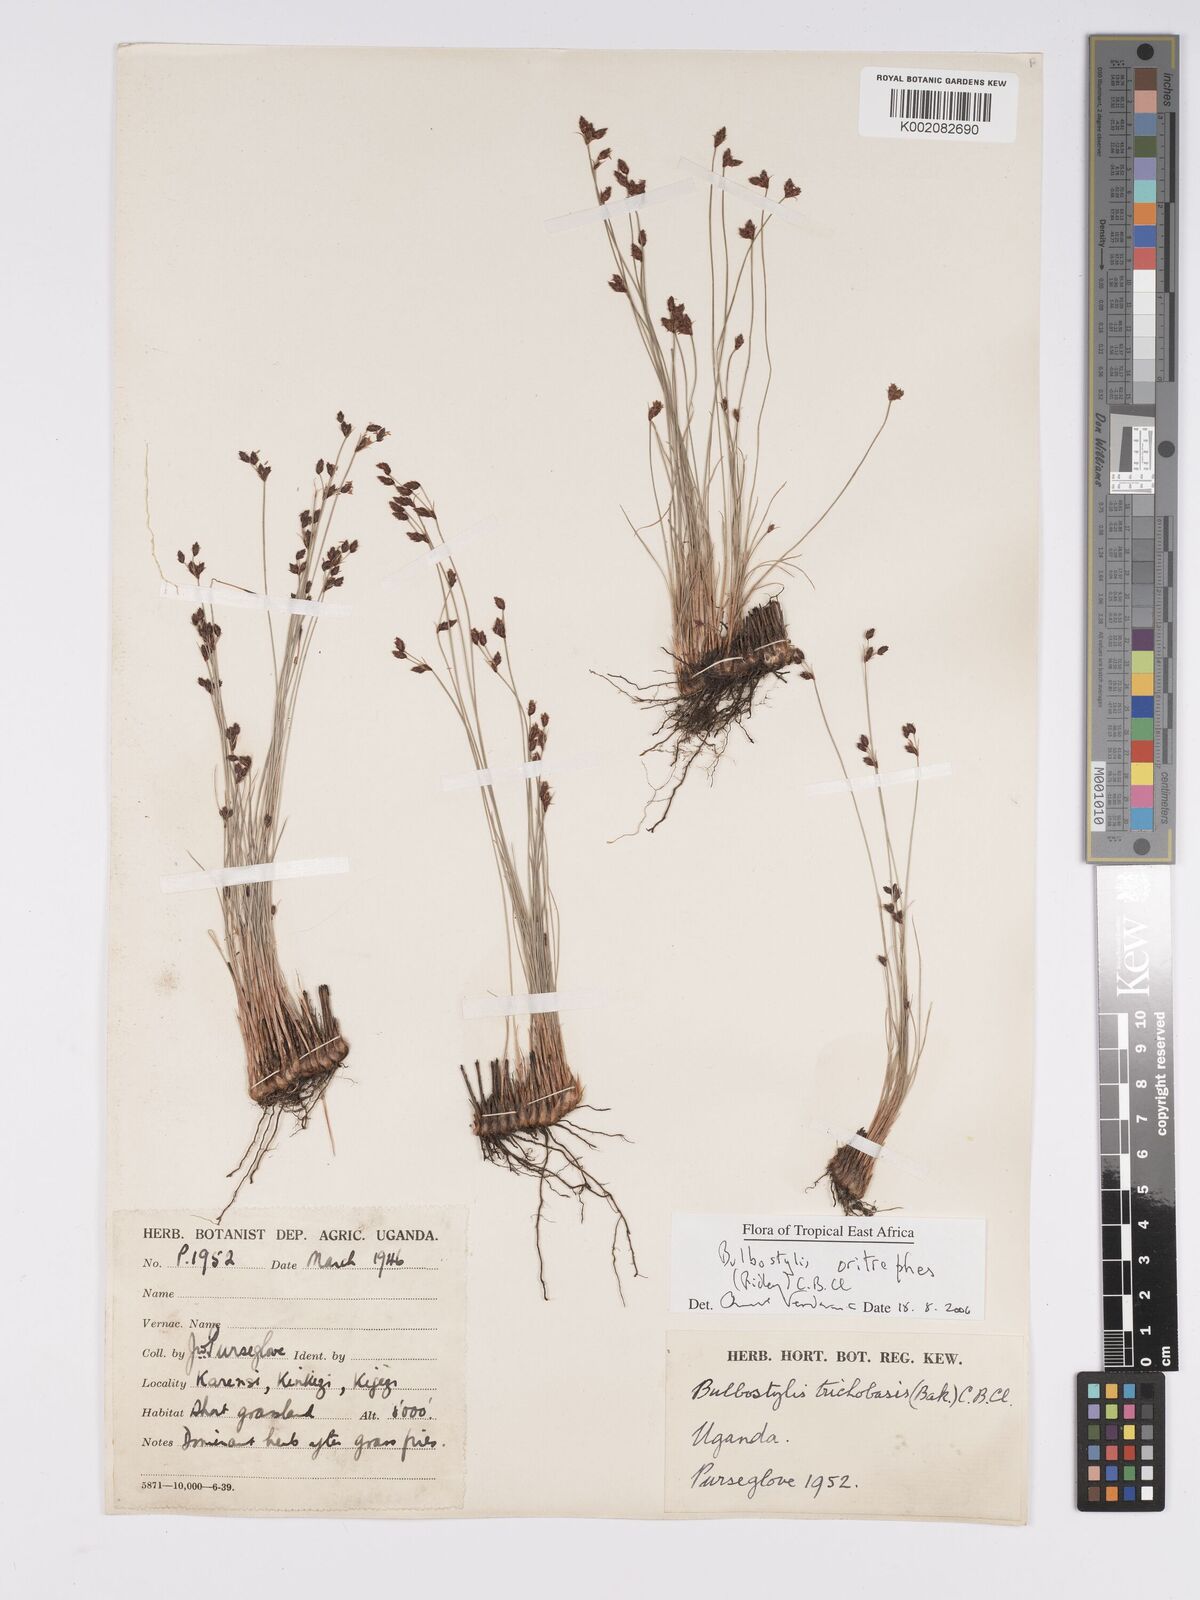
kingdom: Plantae
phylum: Tracheophyta
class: Liliopsida
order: Poales
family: Cyperaceae
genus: Bulbostylis
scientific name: Bulbostylis oritrephes
